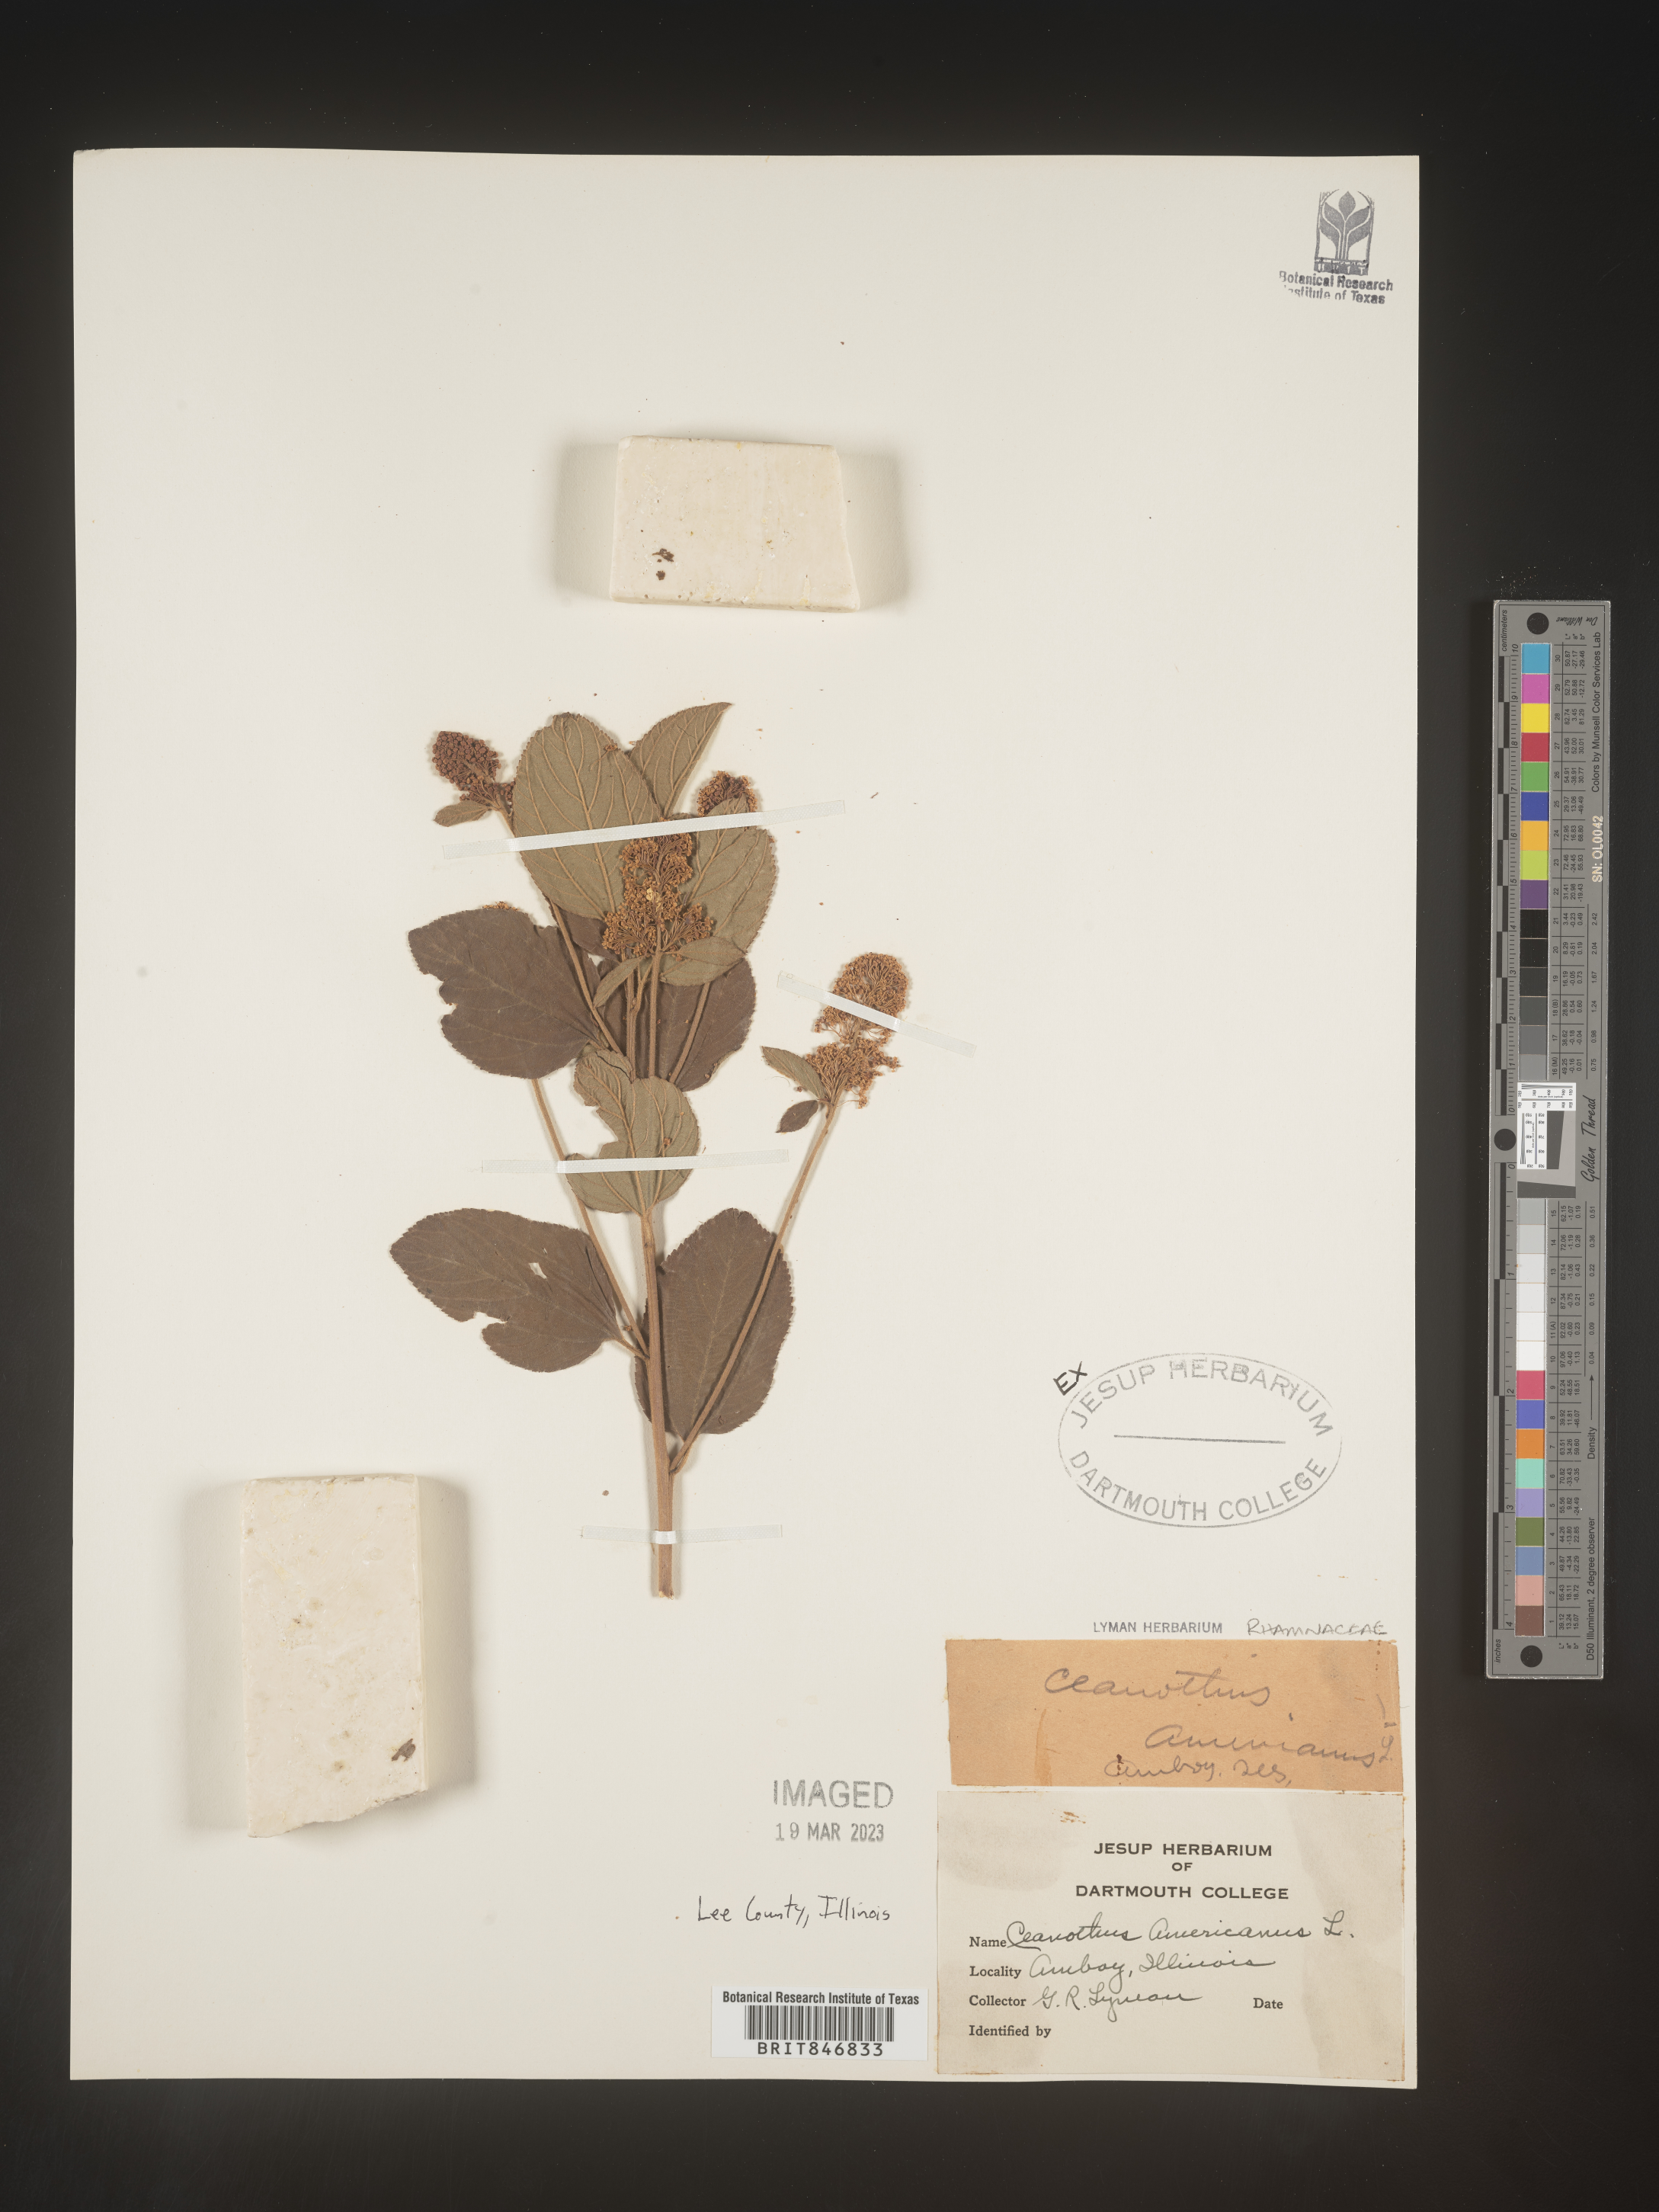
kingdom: Plantae
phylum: Tracheophyta
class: Magnoliopsida
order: Rosales
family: Rhamnaceae
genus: Ceanothus
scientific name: Ceanothus americanus
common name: Redroot
